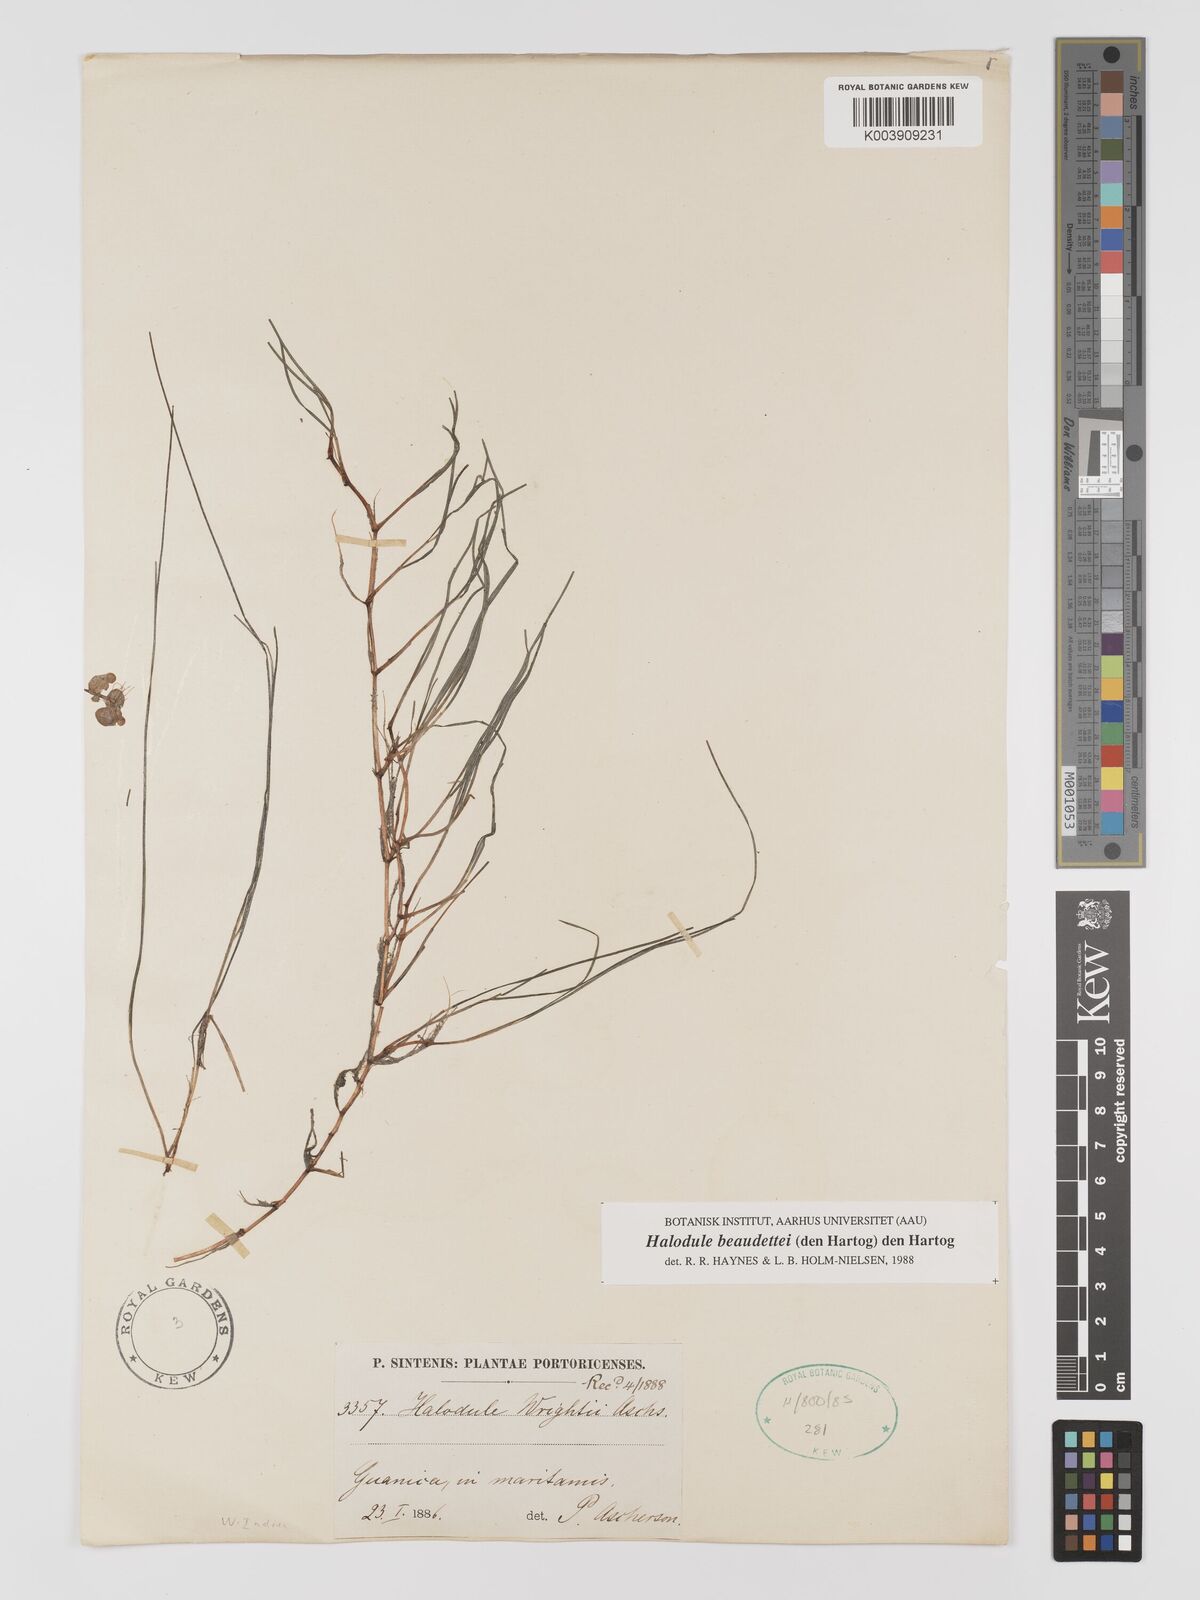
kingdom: Plantae
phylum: Tracheophyta
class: Liliopsida
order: Alismatales
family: Cymodoceaceae
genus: Halodule
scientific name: Halodule wrightii
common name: Shoalgrass
